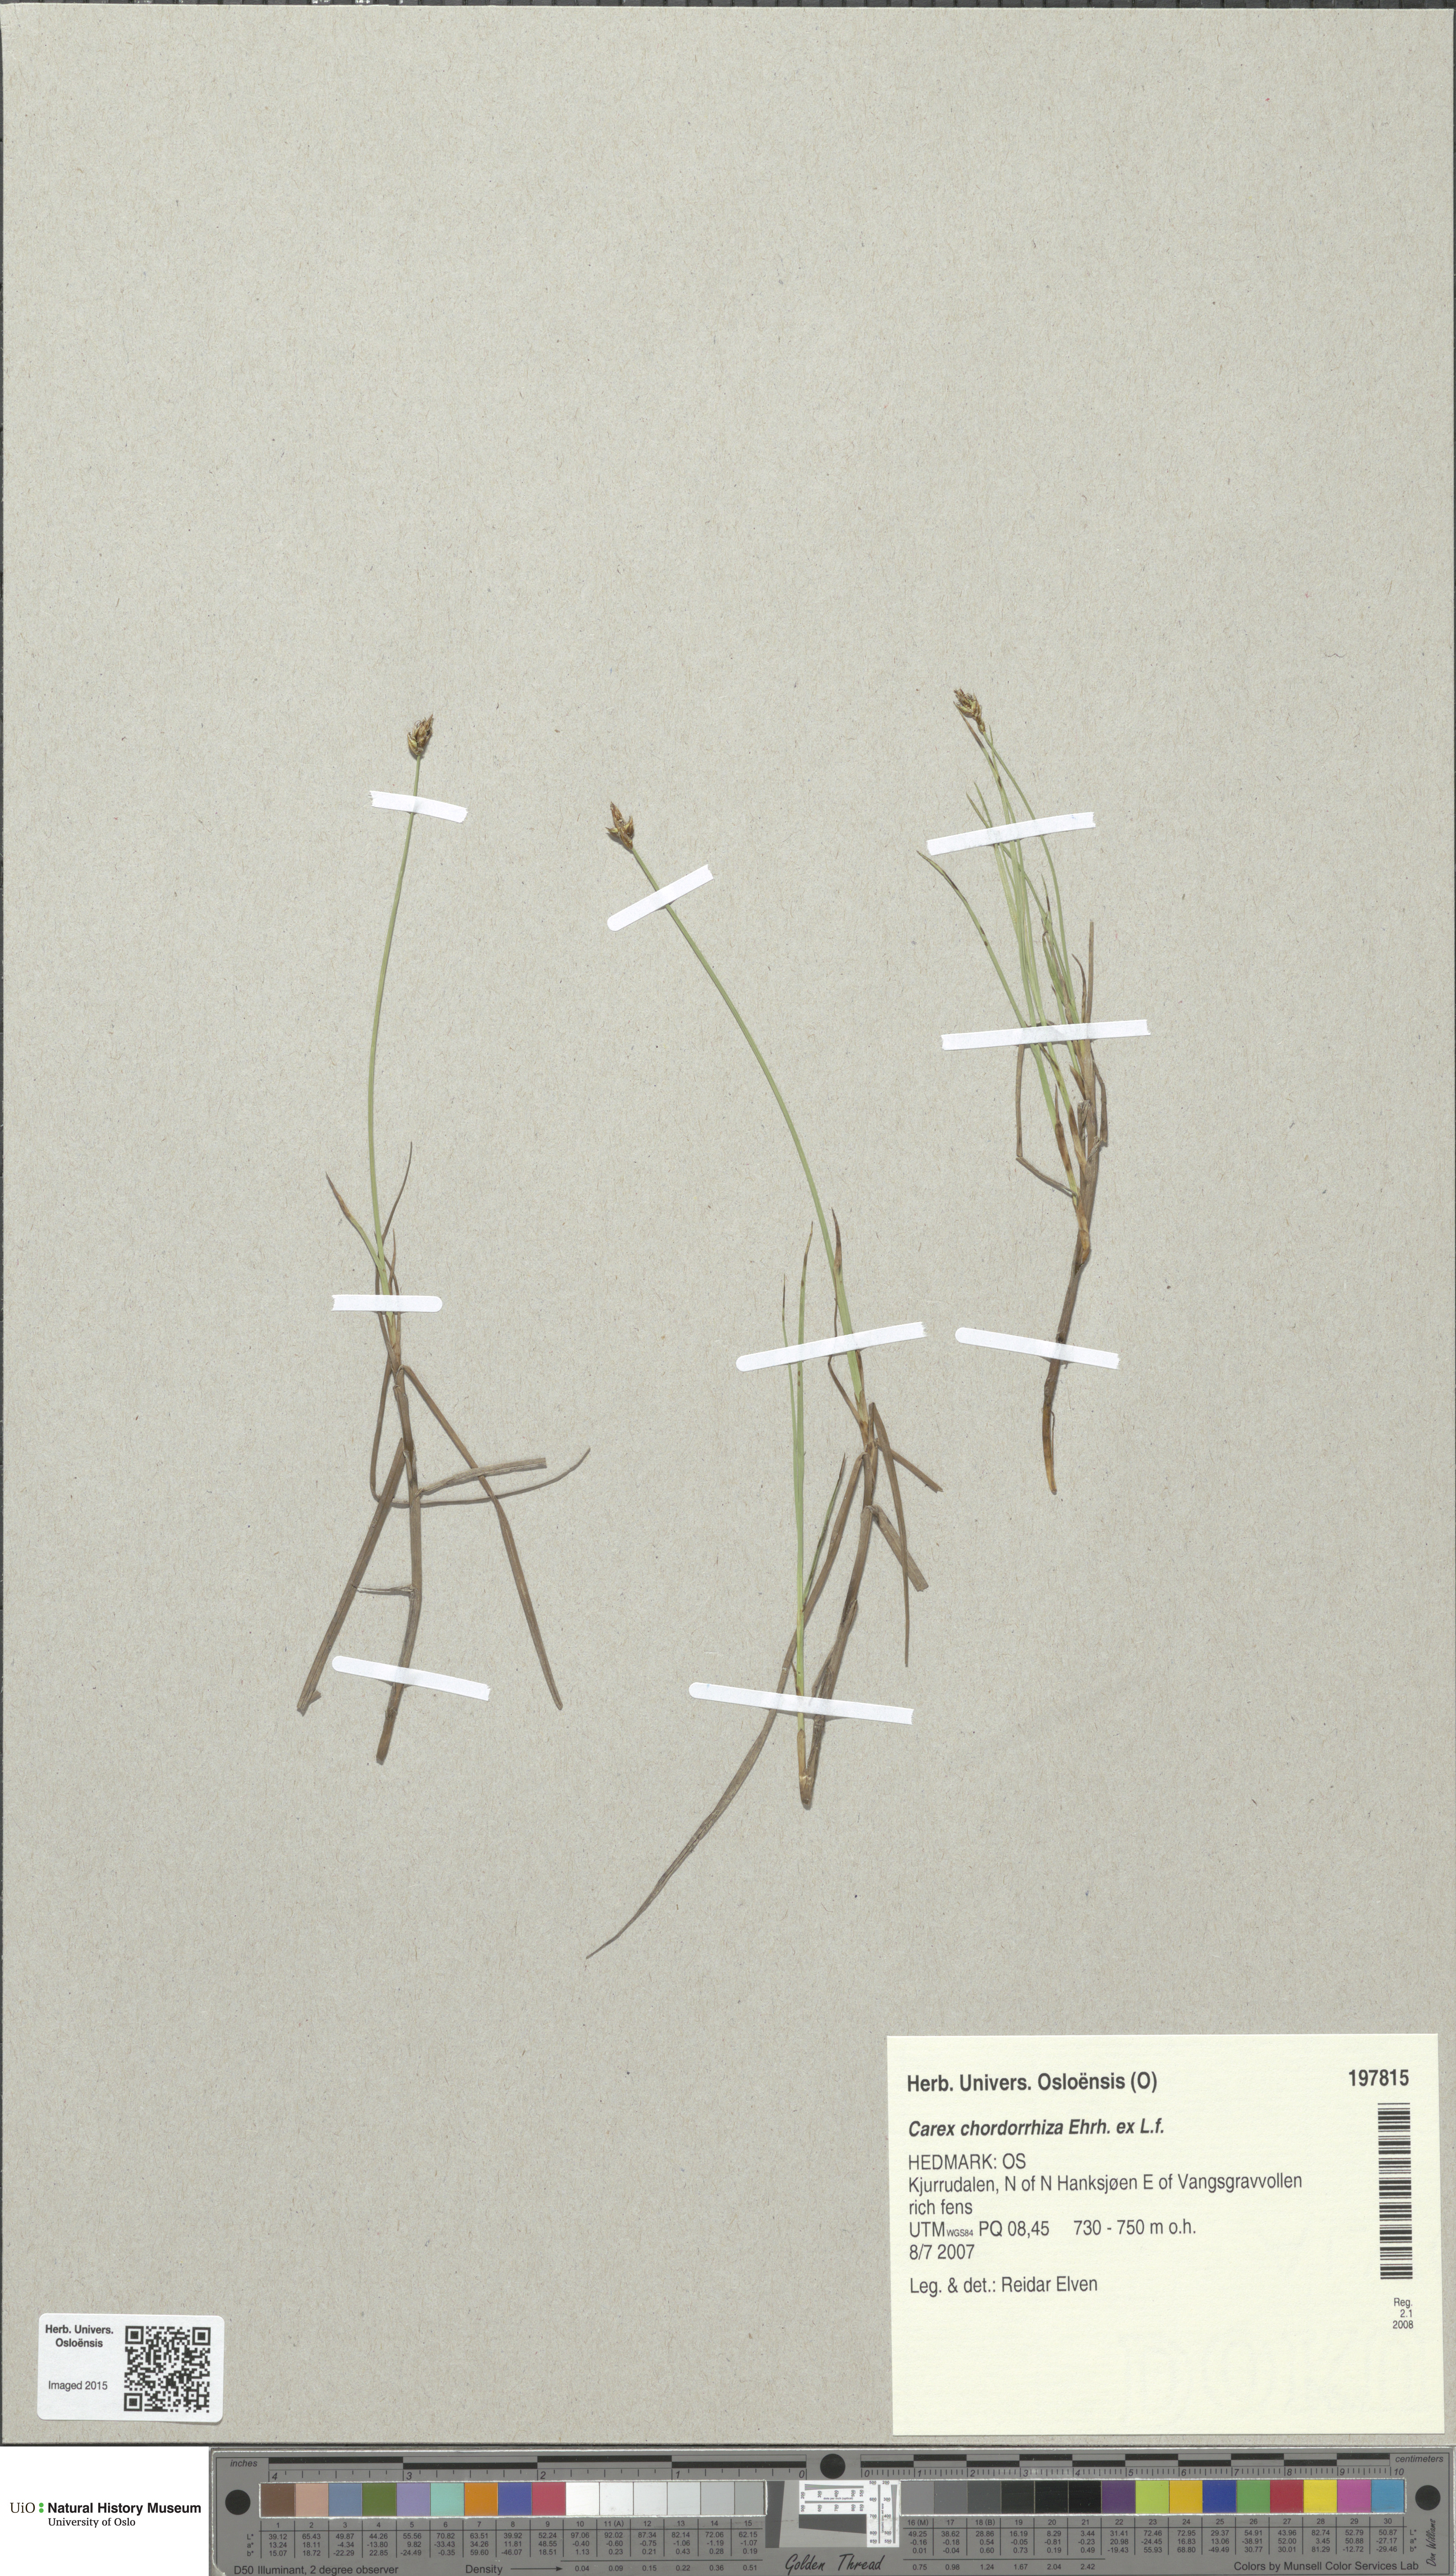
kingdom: Plantae
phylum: Tracheophyta
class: Liliopsida
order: Poales
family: Cyperaceae
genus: Carex
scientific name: Carex chordorrhiza
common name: String sedge
